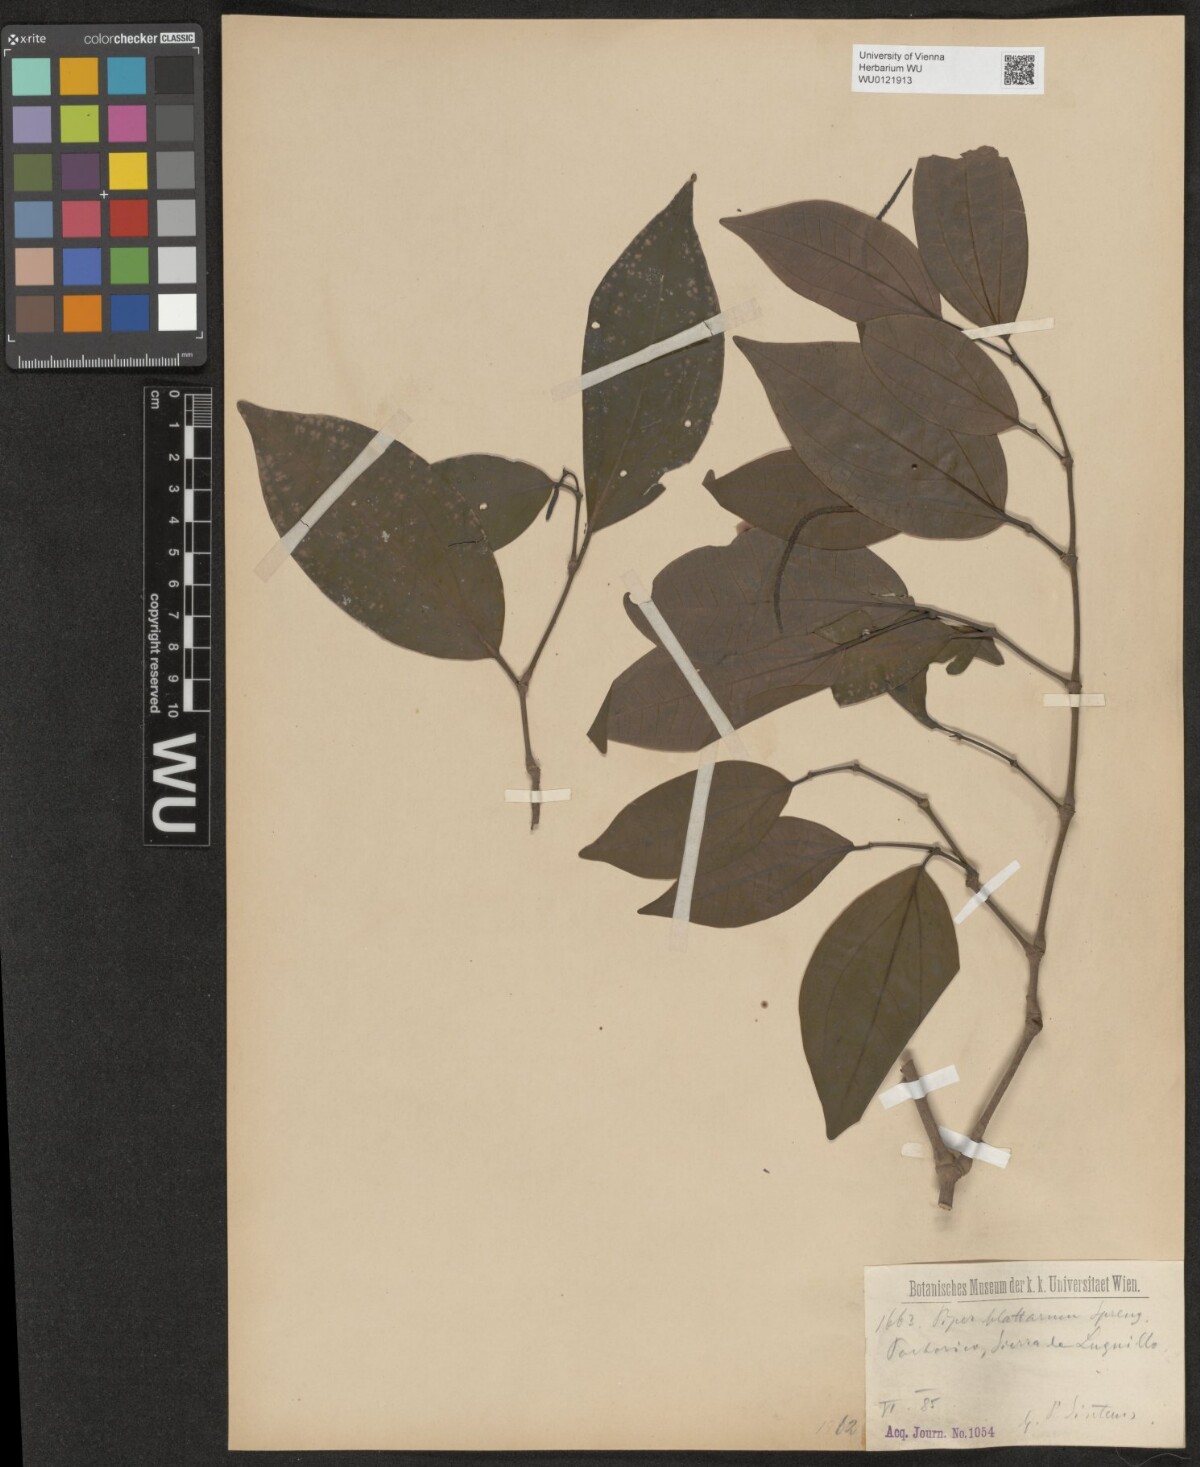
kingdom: Plantae
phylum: Tracheophyta
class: Magnoliopsida
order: Piperales
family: Piperaceae
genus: Piper
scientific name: Piper blattarum
